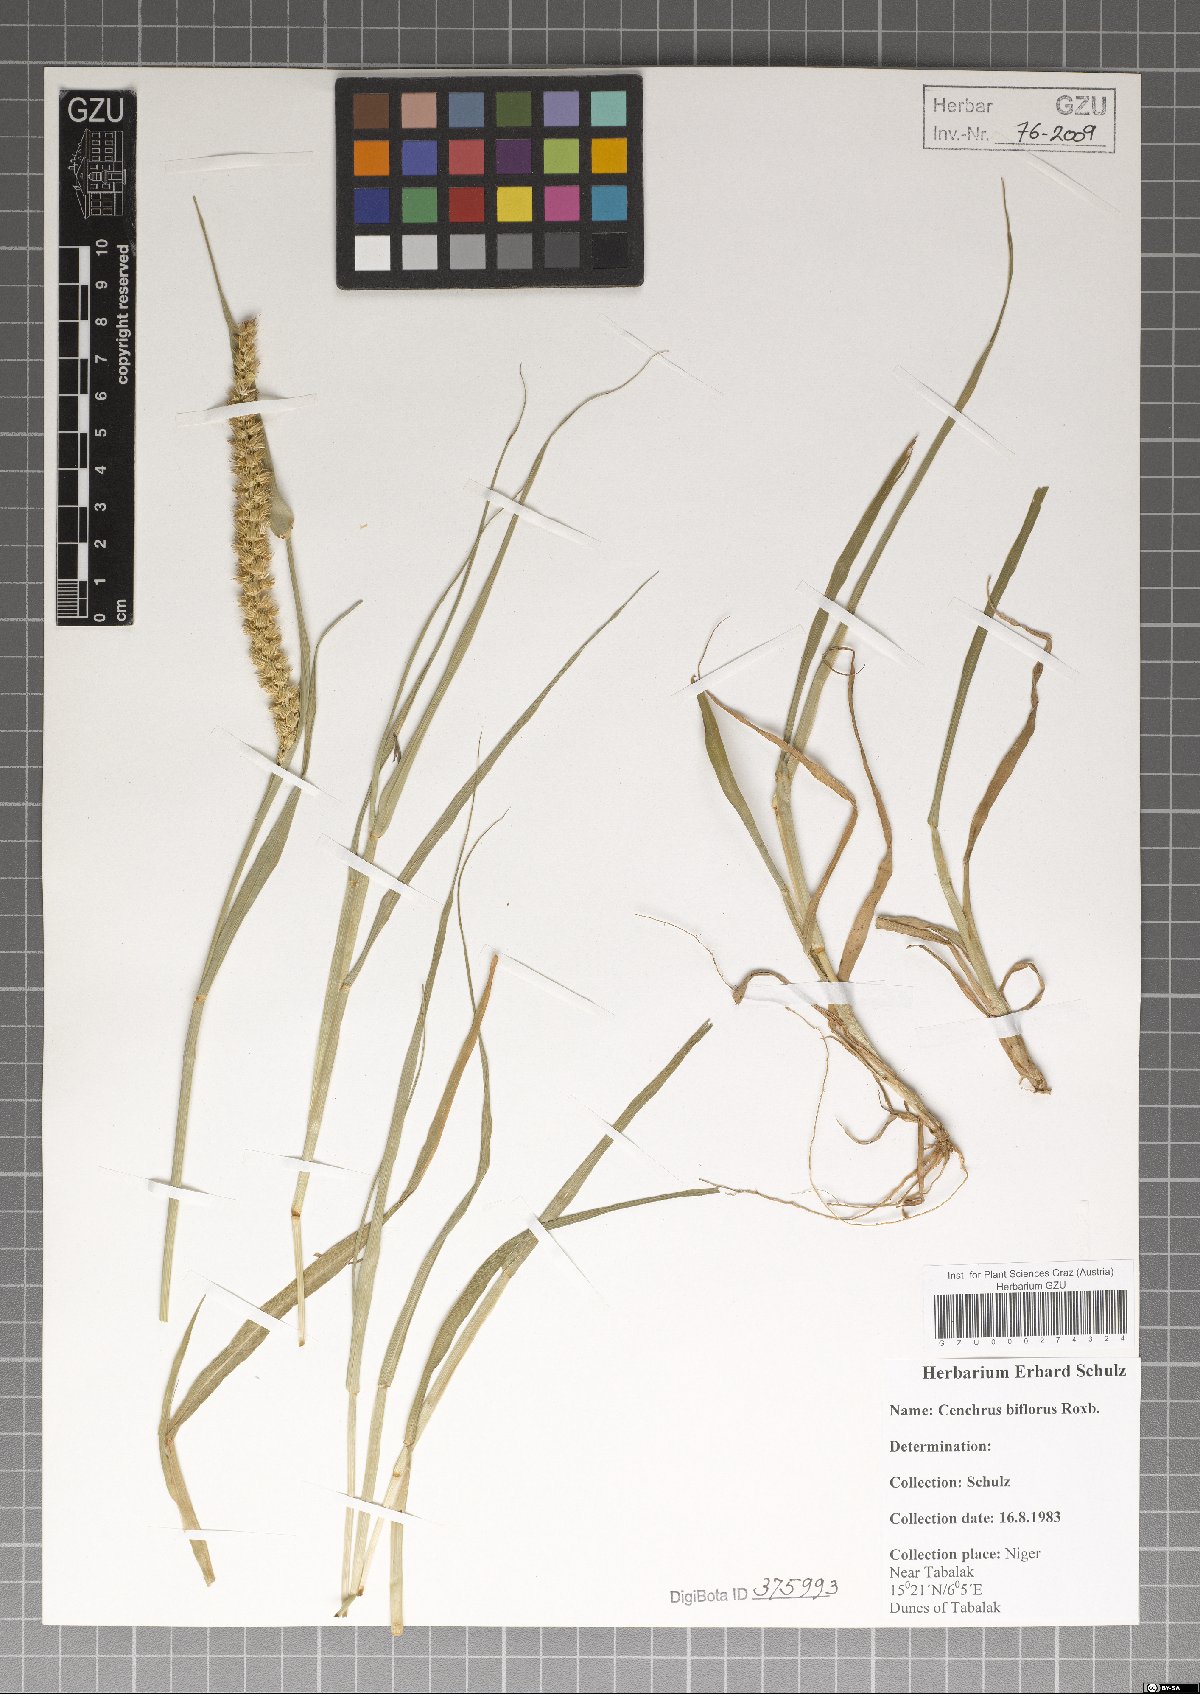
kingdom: Plantae
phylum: Tracheophyta
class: Liliopsida
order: Poales
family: Poaceae
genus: Cenchrus
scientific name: Cenchrus biflorus
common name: Indian sandbur
